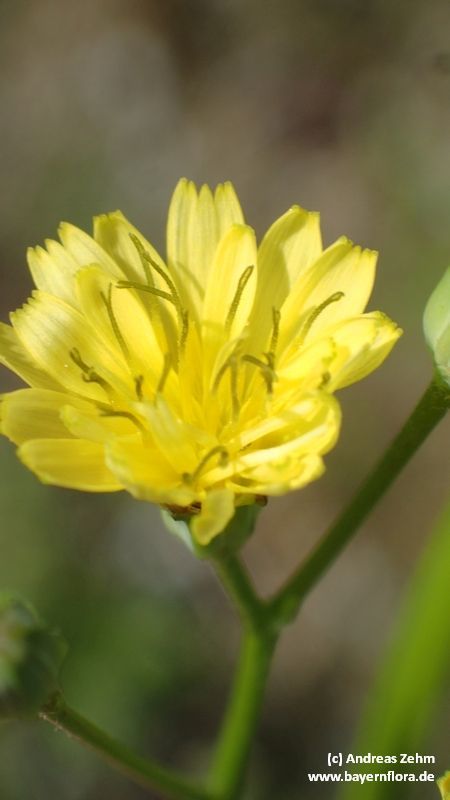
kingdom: Plantae
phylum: Tracheophyta
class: Magnoliopsida
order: Asterales
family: Asteraceae
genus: Lapsana
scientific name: Lapsana communis
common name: Nipplewort
